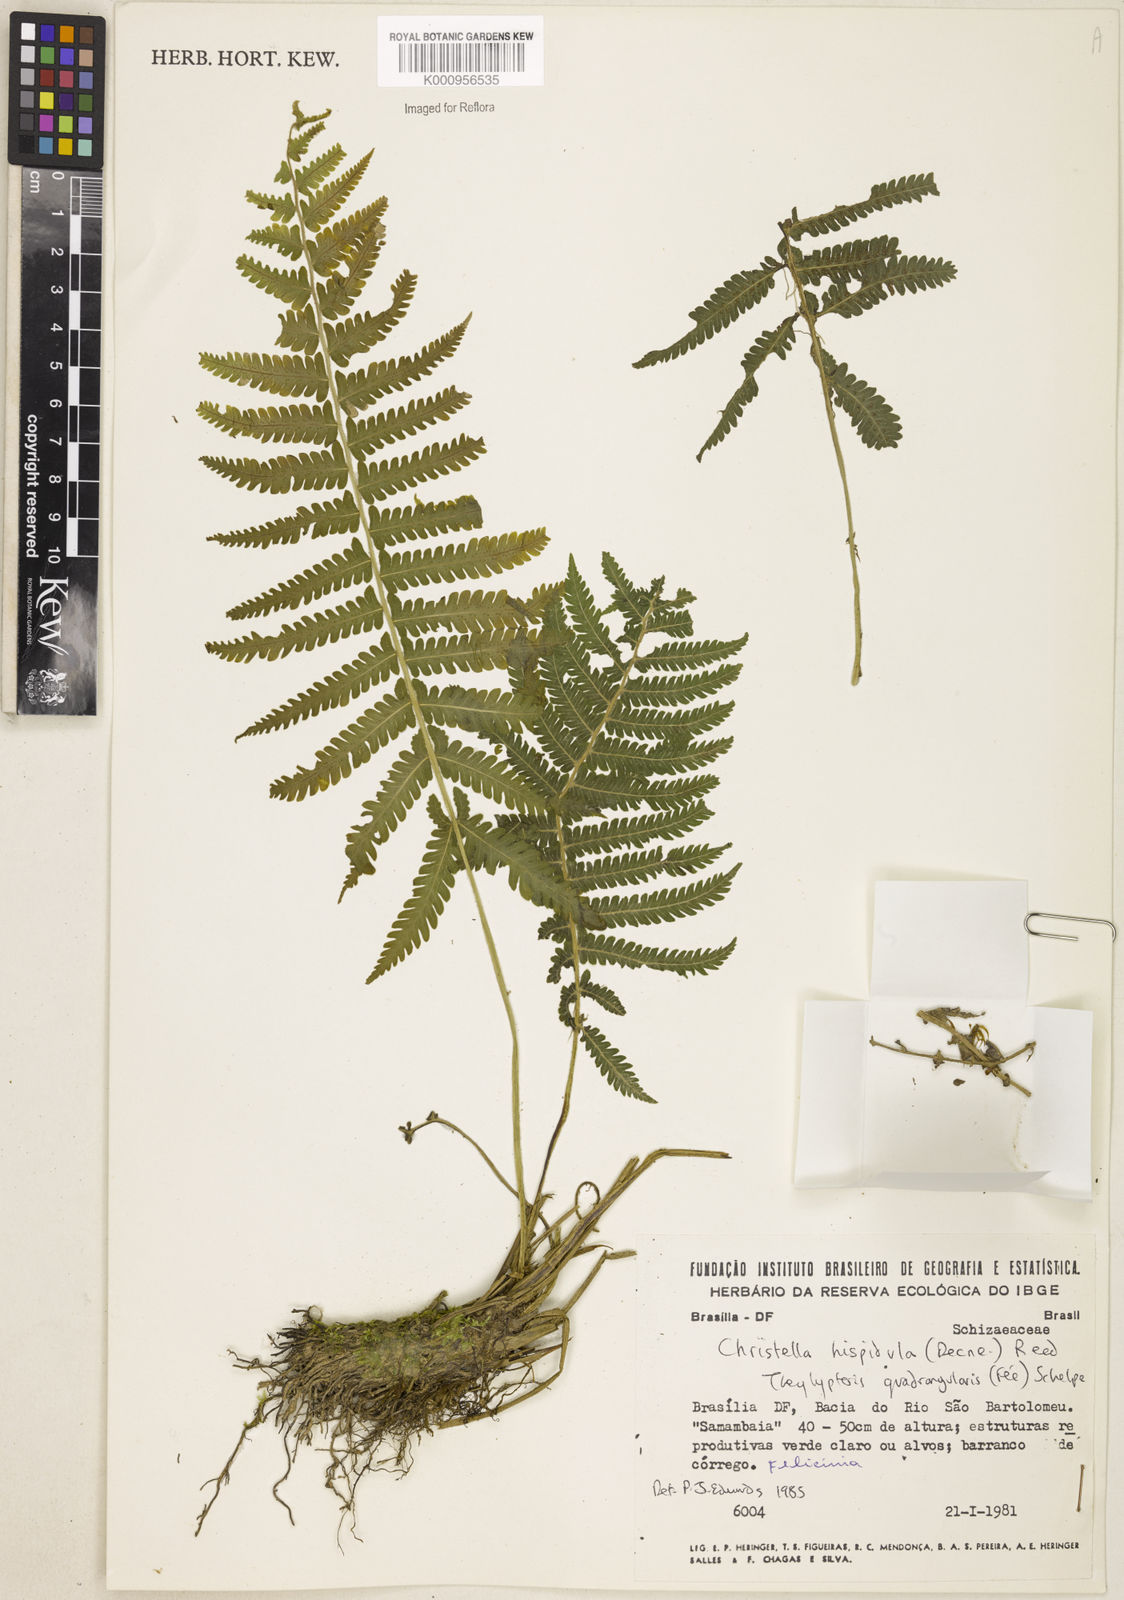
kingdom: Plantae
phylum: Tracheophyta
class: Polypodiopsida
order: Polypodiales
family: Thelypteridaceae
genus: Christella
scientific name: Christella hispidula
